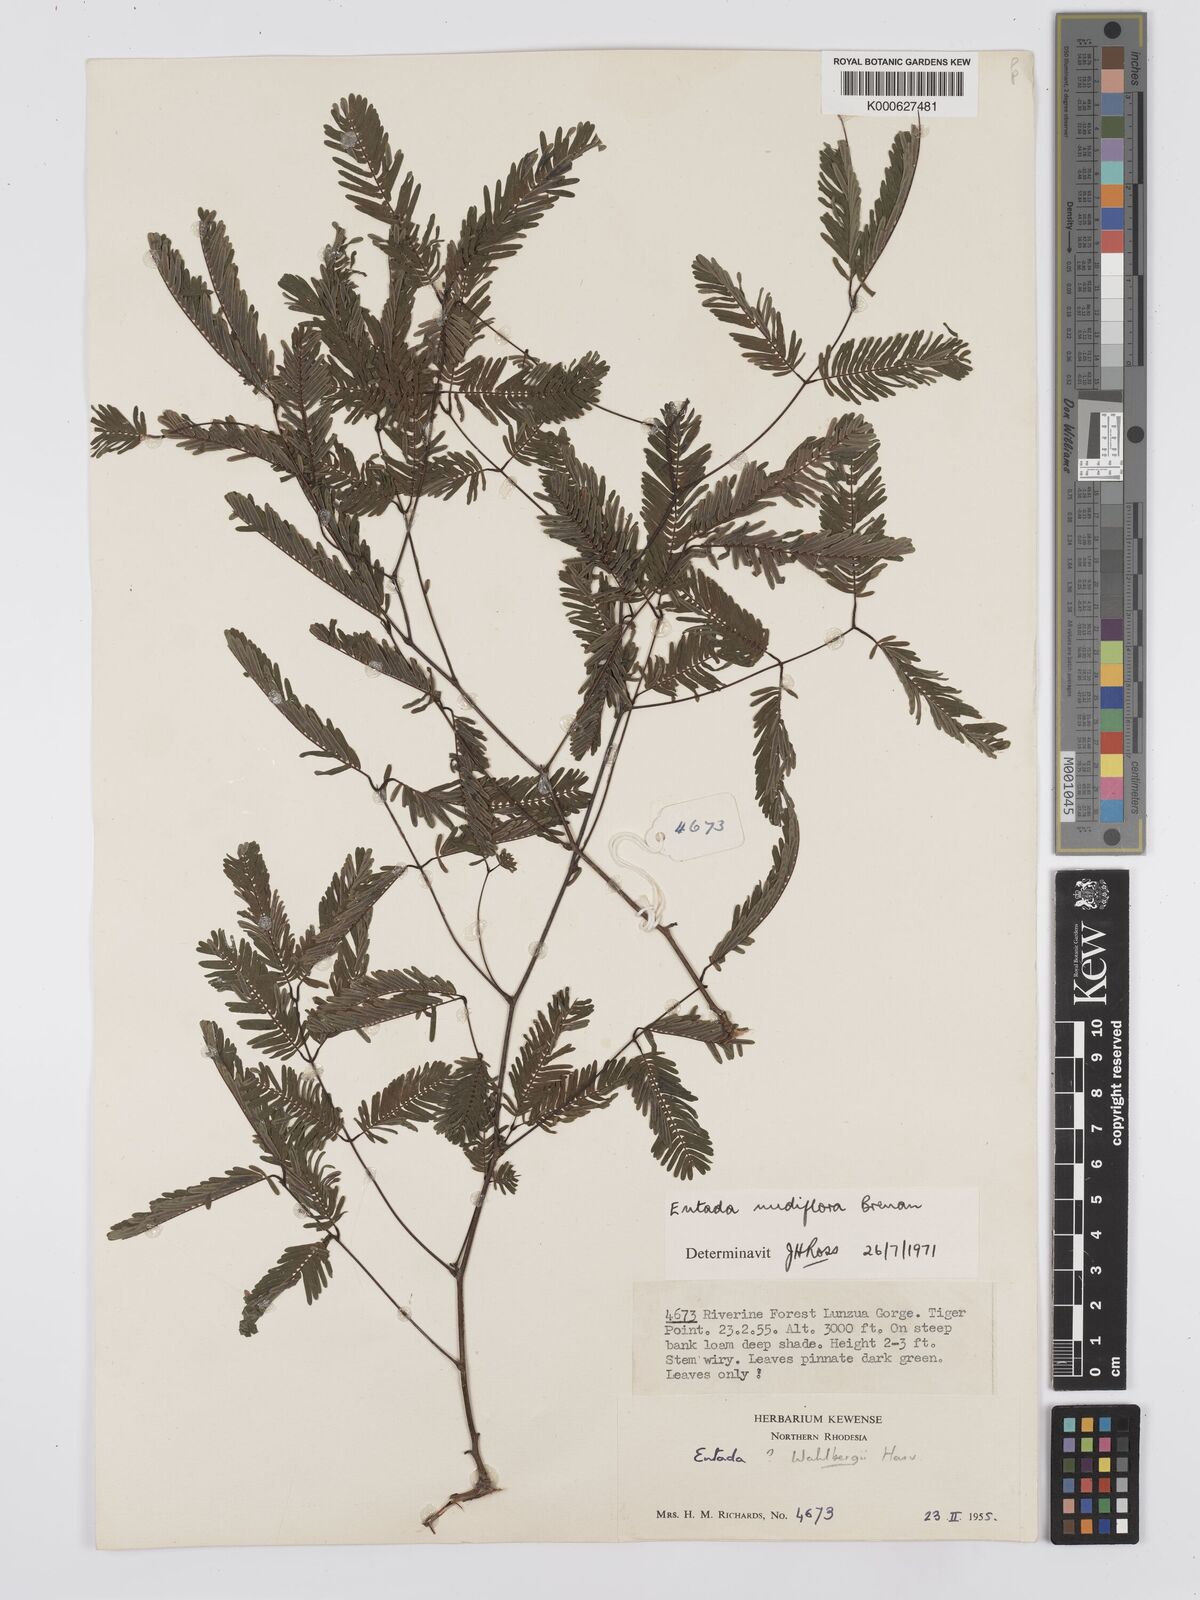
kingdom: Plantae
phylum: Tracheophyta
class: Magnoliopsida
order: Fabales
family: Fabaceae
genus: Entada
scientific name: Entada nudiflora
